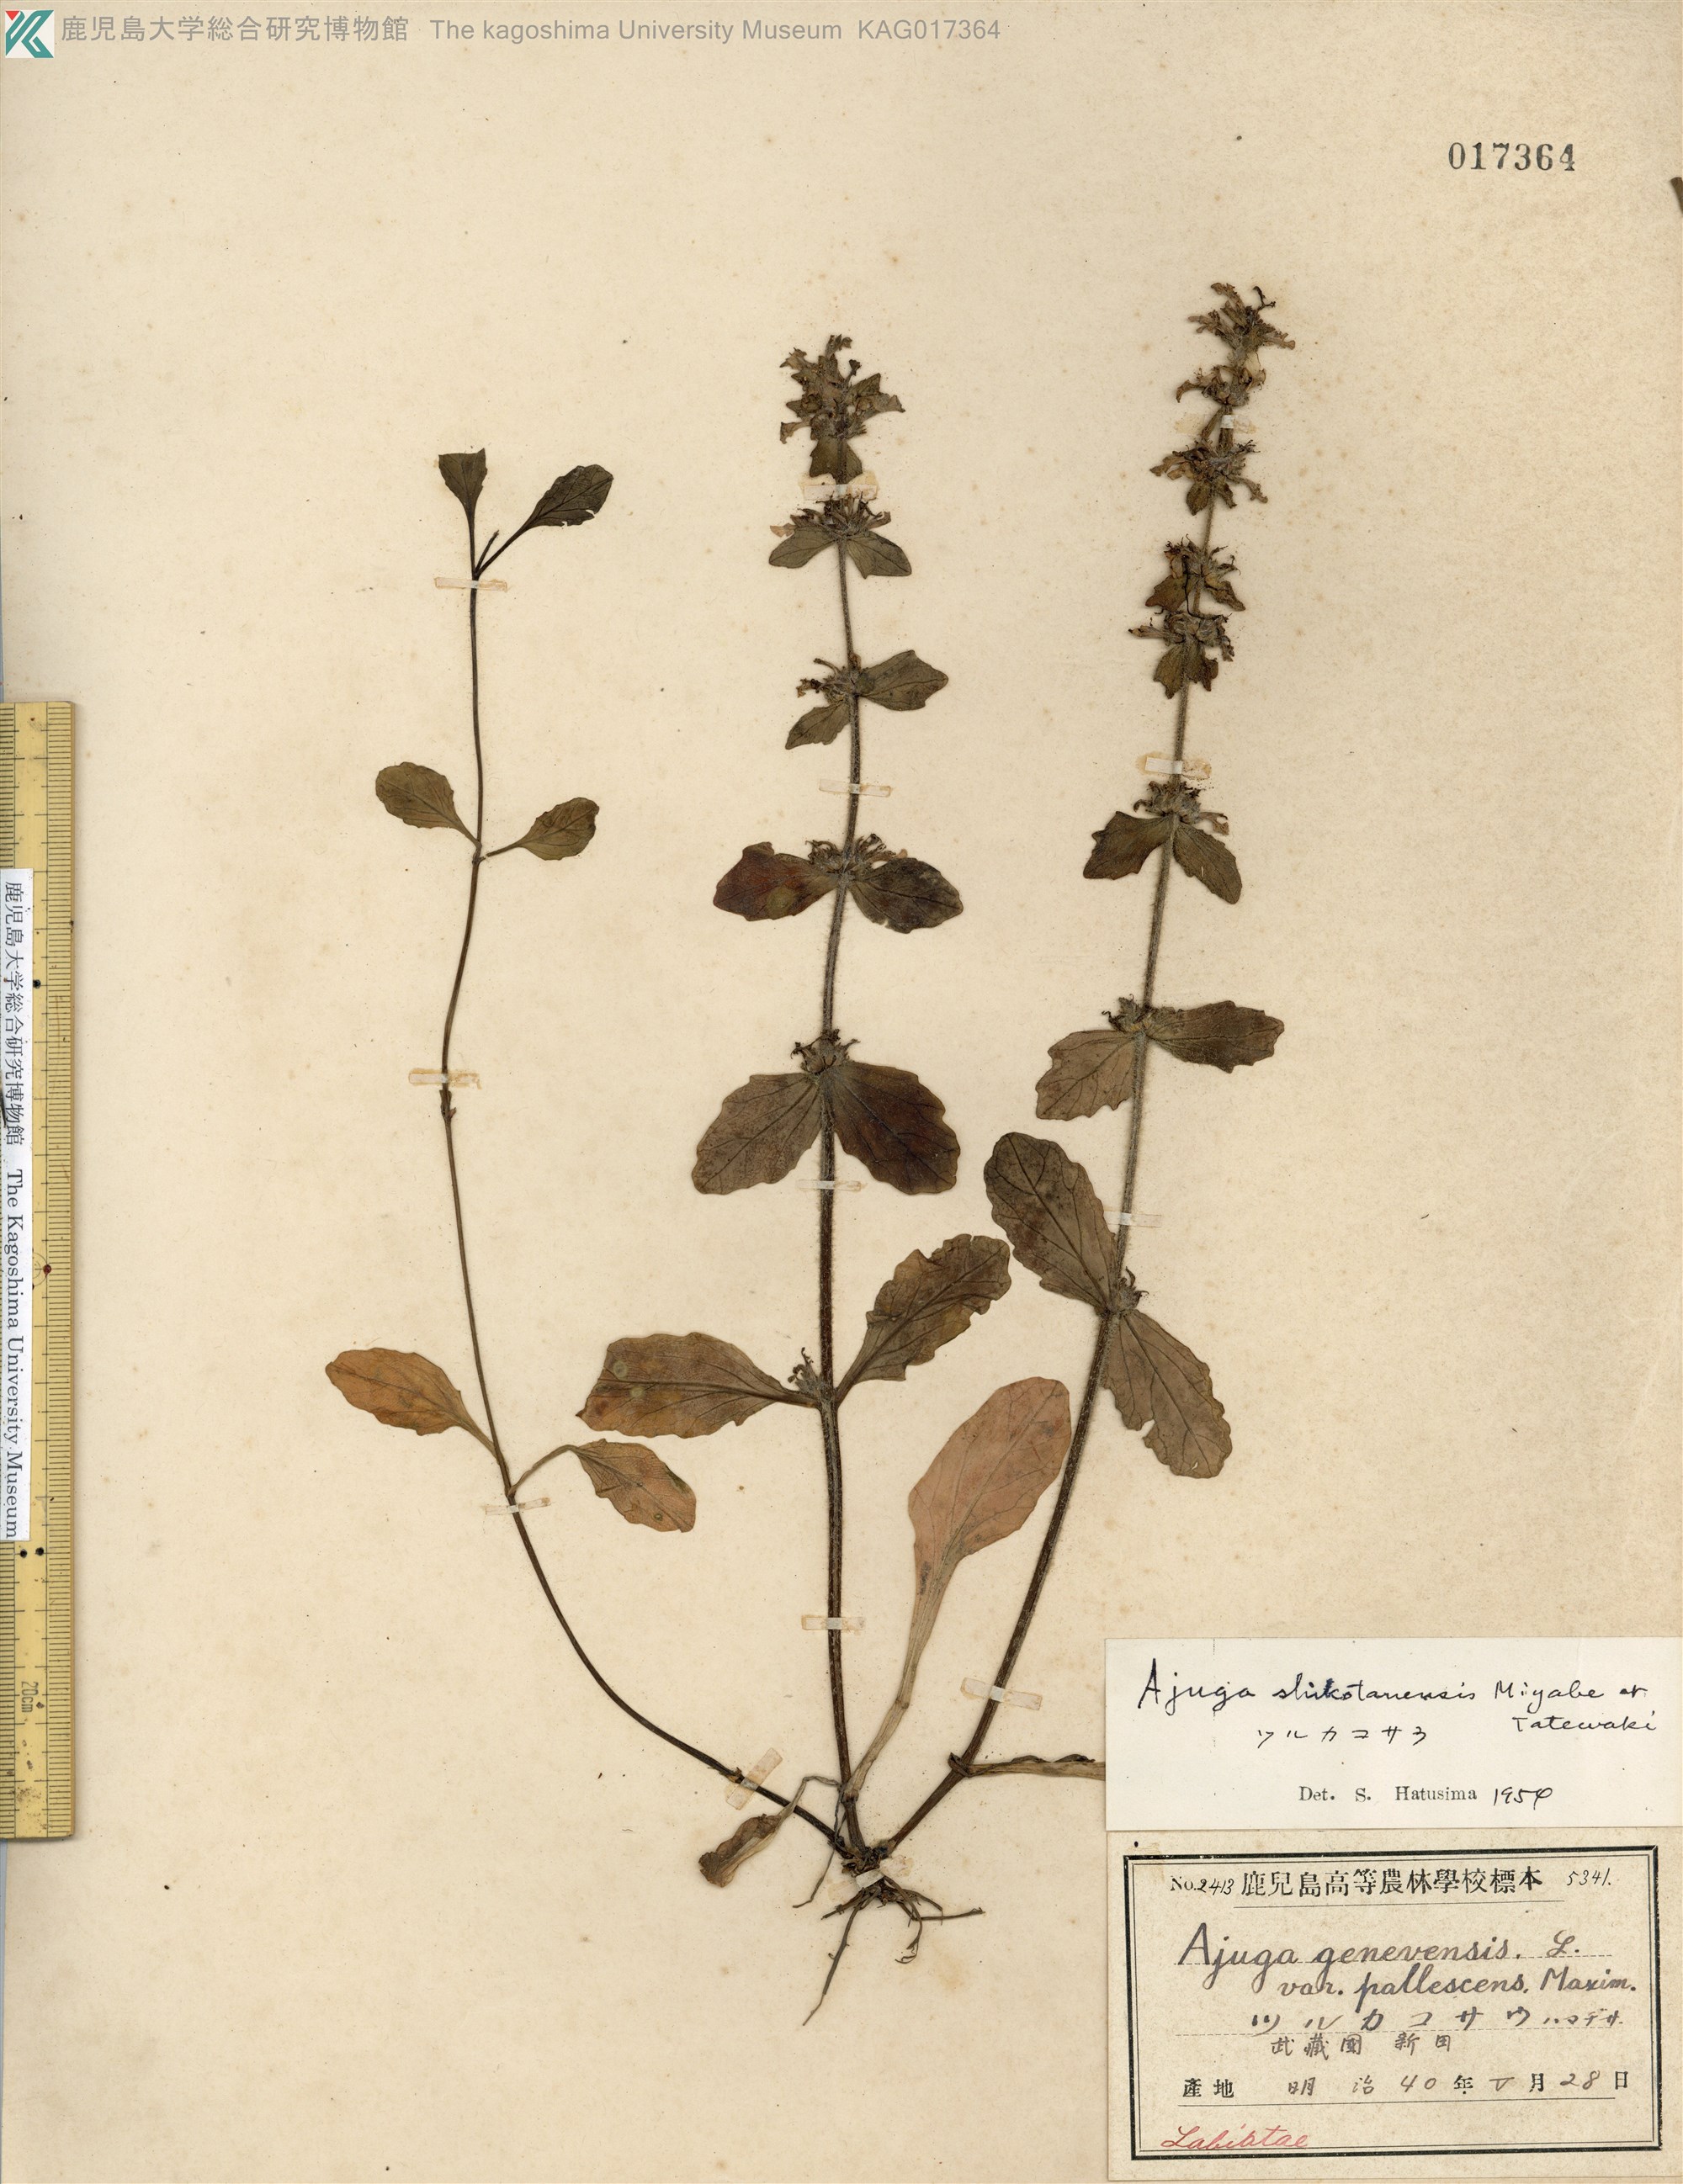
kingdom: Plantae
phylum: Tracheophyta
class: Magnoliopsida
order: Lamiales
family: Lamiaceae
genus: Ajuga
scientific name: Ajuga shikotanensis
